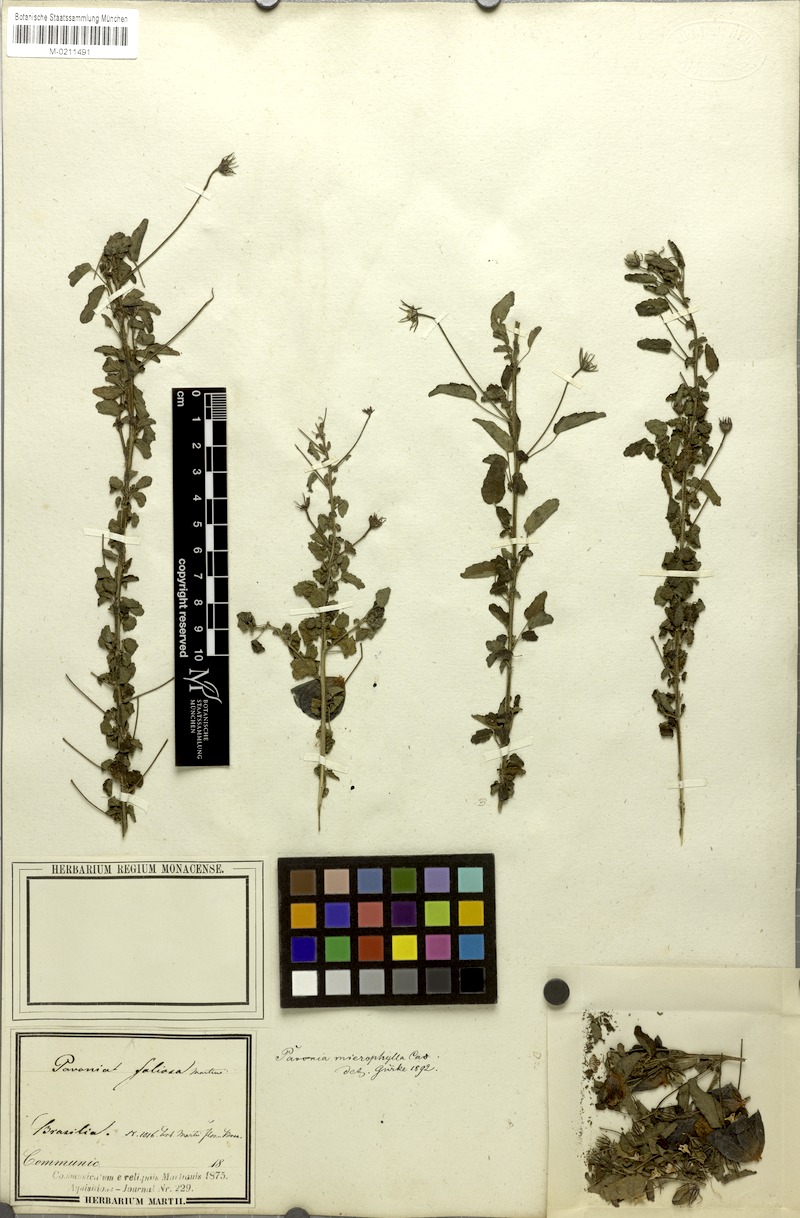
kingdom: Plantae
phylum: Tracheophyta
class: Magnoliopsida
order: Malvales
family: Malvaceae
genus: Pavonia
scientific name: Pavonia martii
